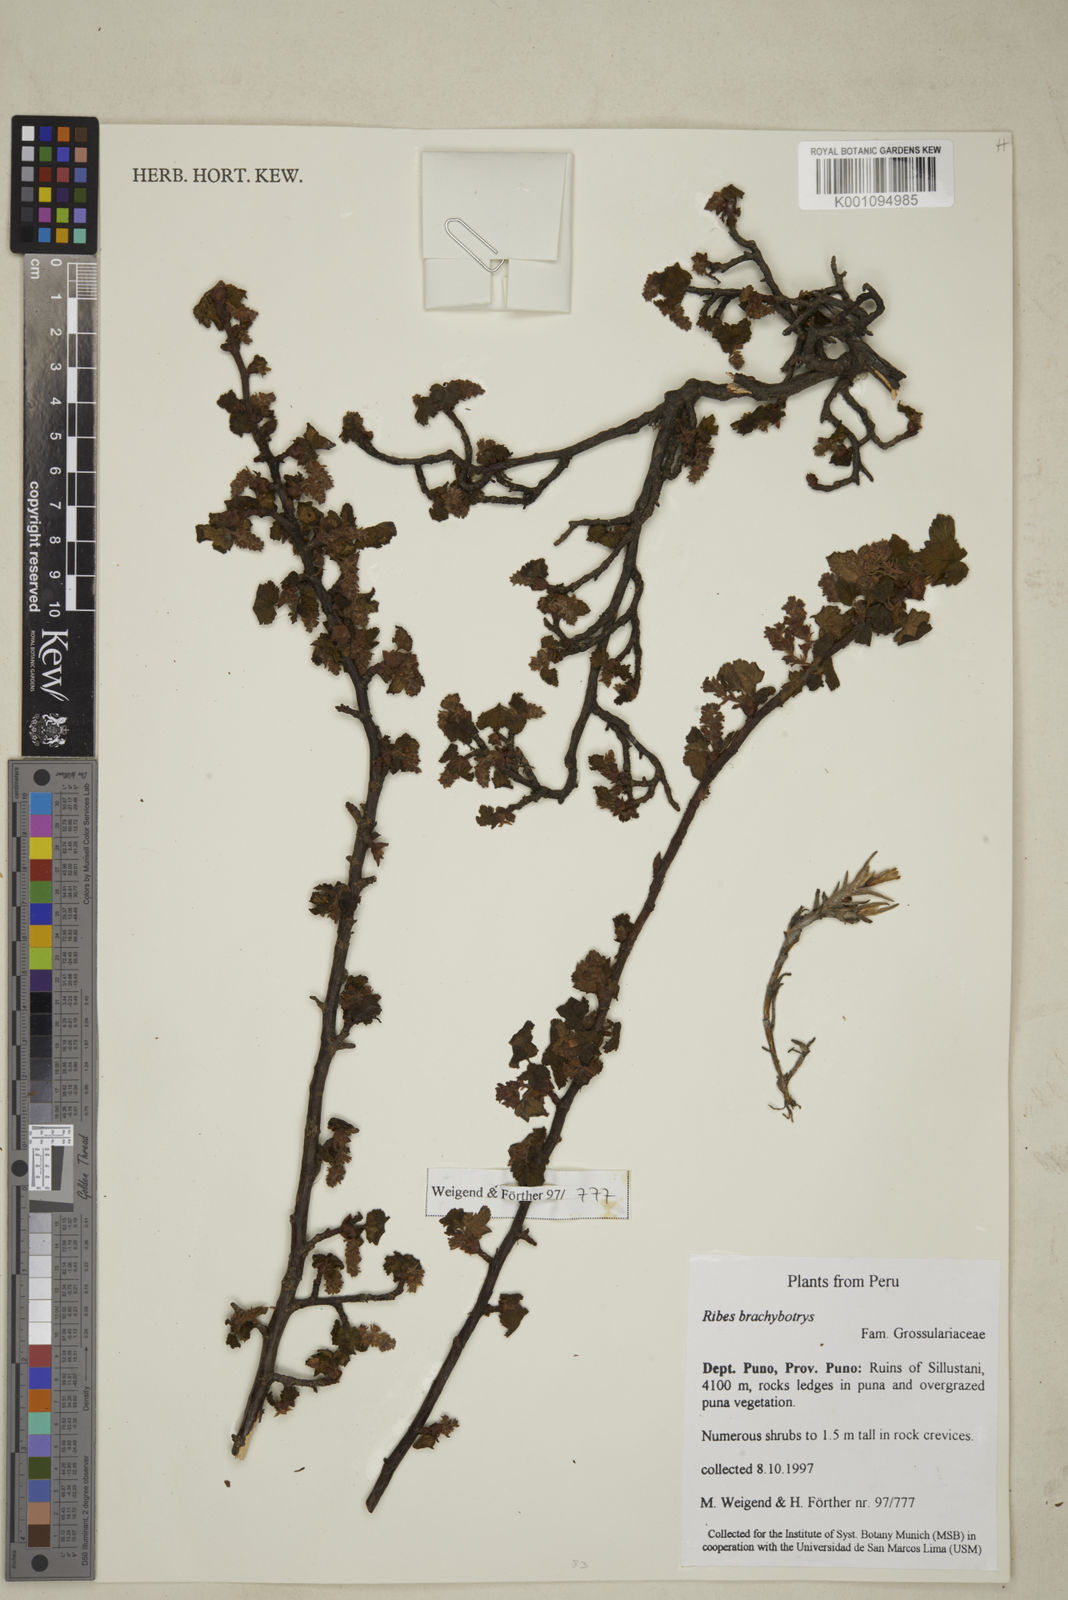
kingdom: Plantae
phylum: Tracheophyta
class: Magnoliopsida
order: Saxifragales
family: Grossulariaceae
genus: Ribes
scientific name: Ribes brachybotrys
